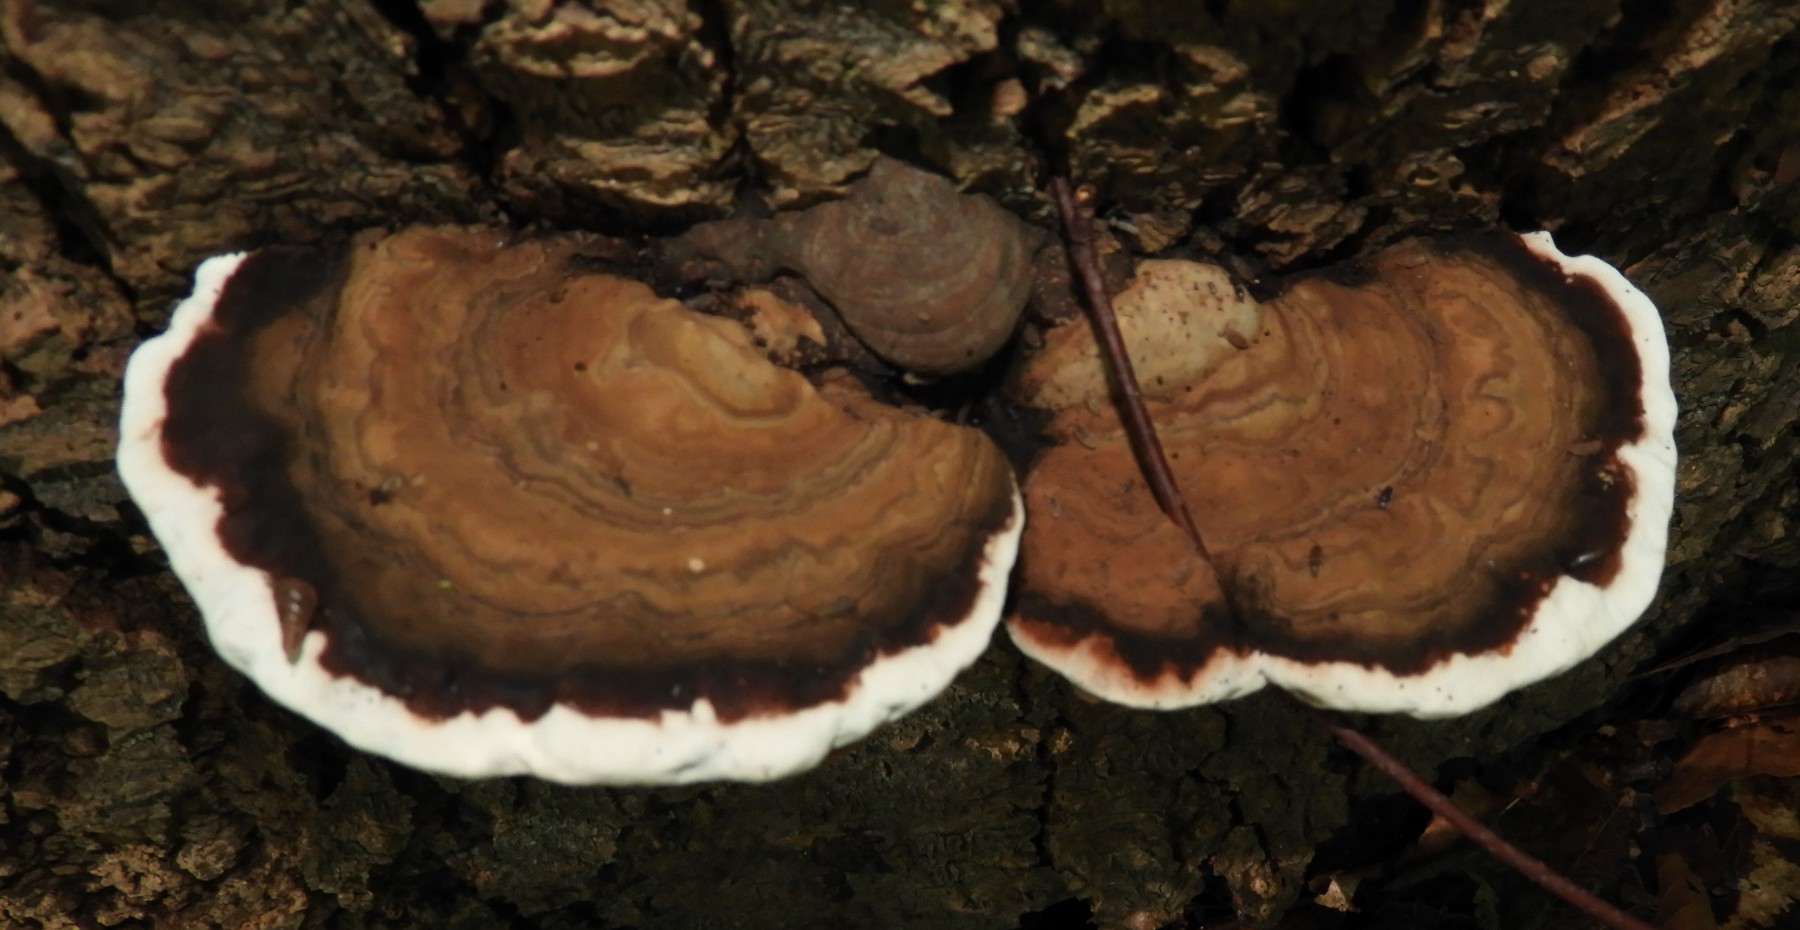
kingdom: Fungi
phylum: Basidiomycota
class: Agaricomycetes
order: Polyporales
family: Polyporaceae
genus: Ganoderma
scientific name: Ganoderma applanatum
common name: flad lakporesvamp
